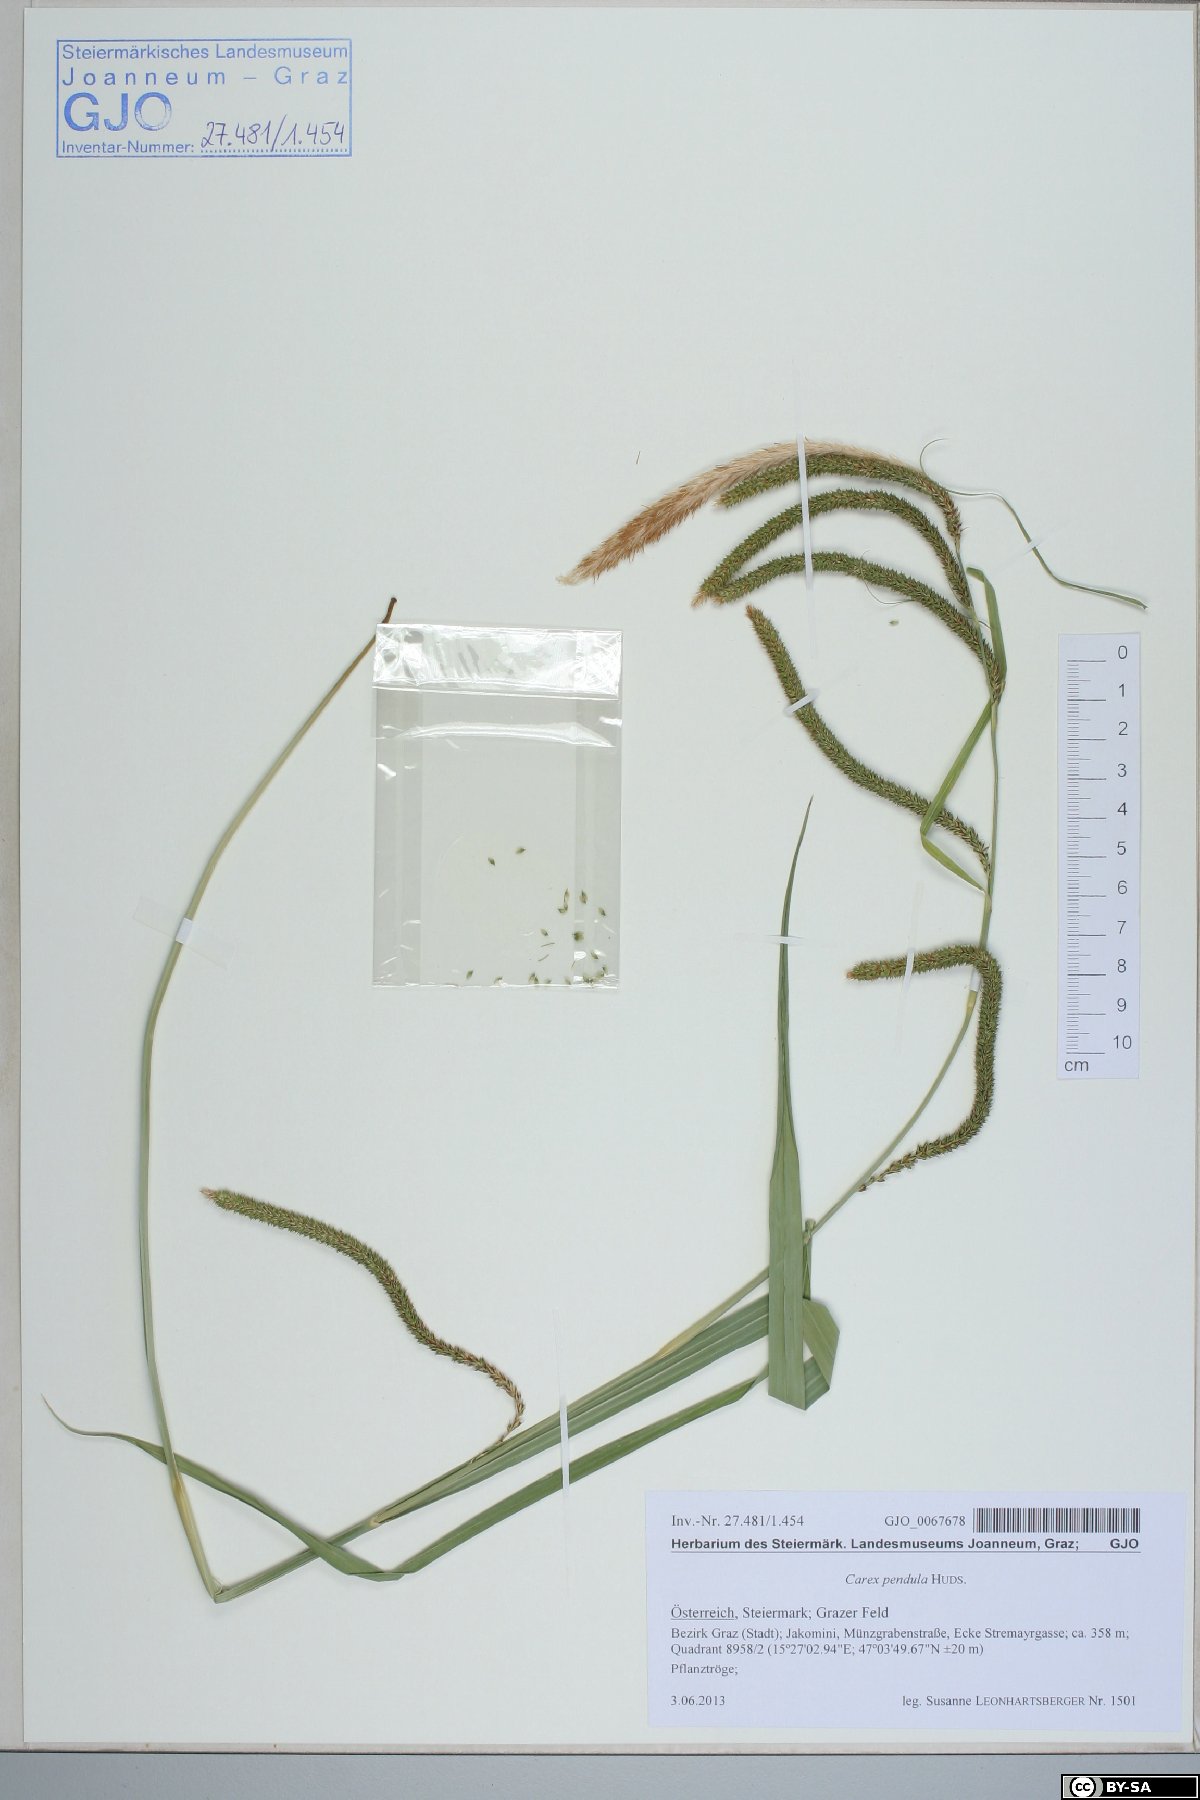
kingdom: Plantae
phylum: Tracheophyta
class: Liliopsida
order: Poales
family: Cyperaceae
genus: Carex
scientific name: Carex pendula
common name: Pendulous sedge
